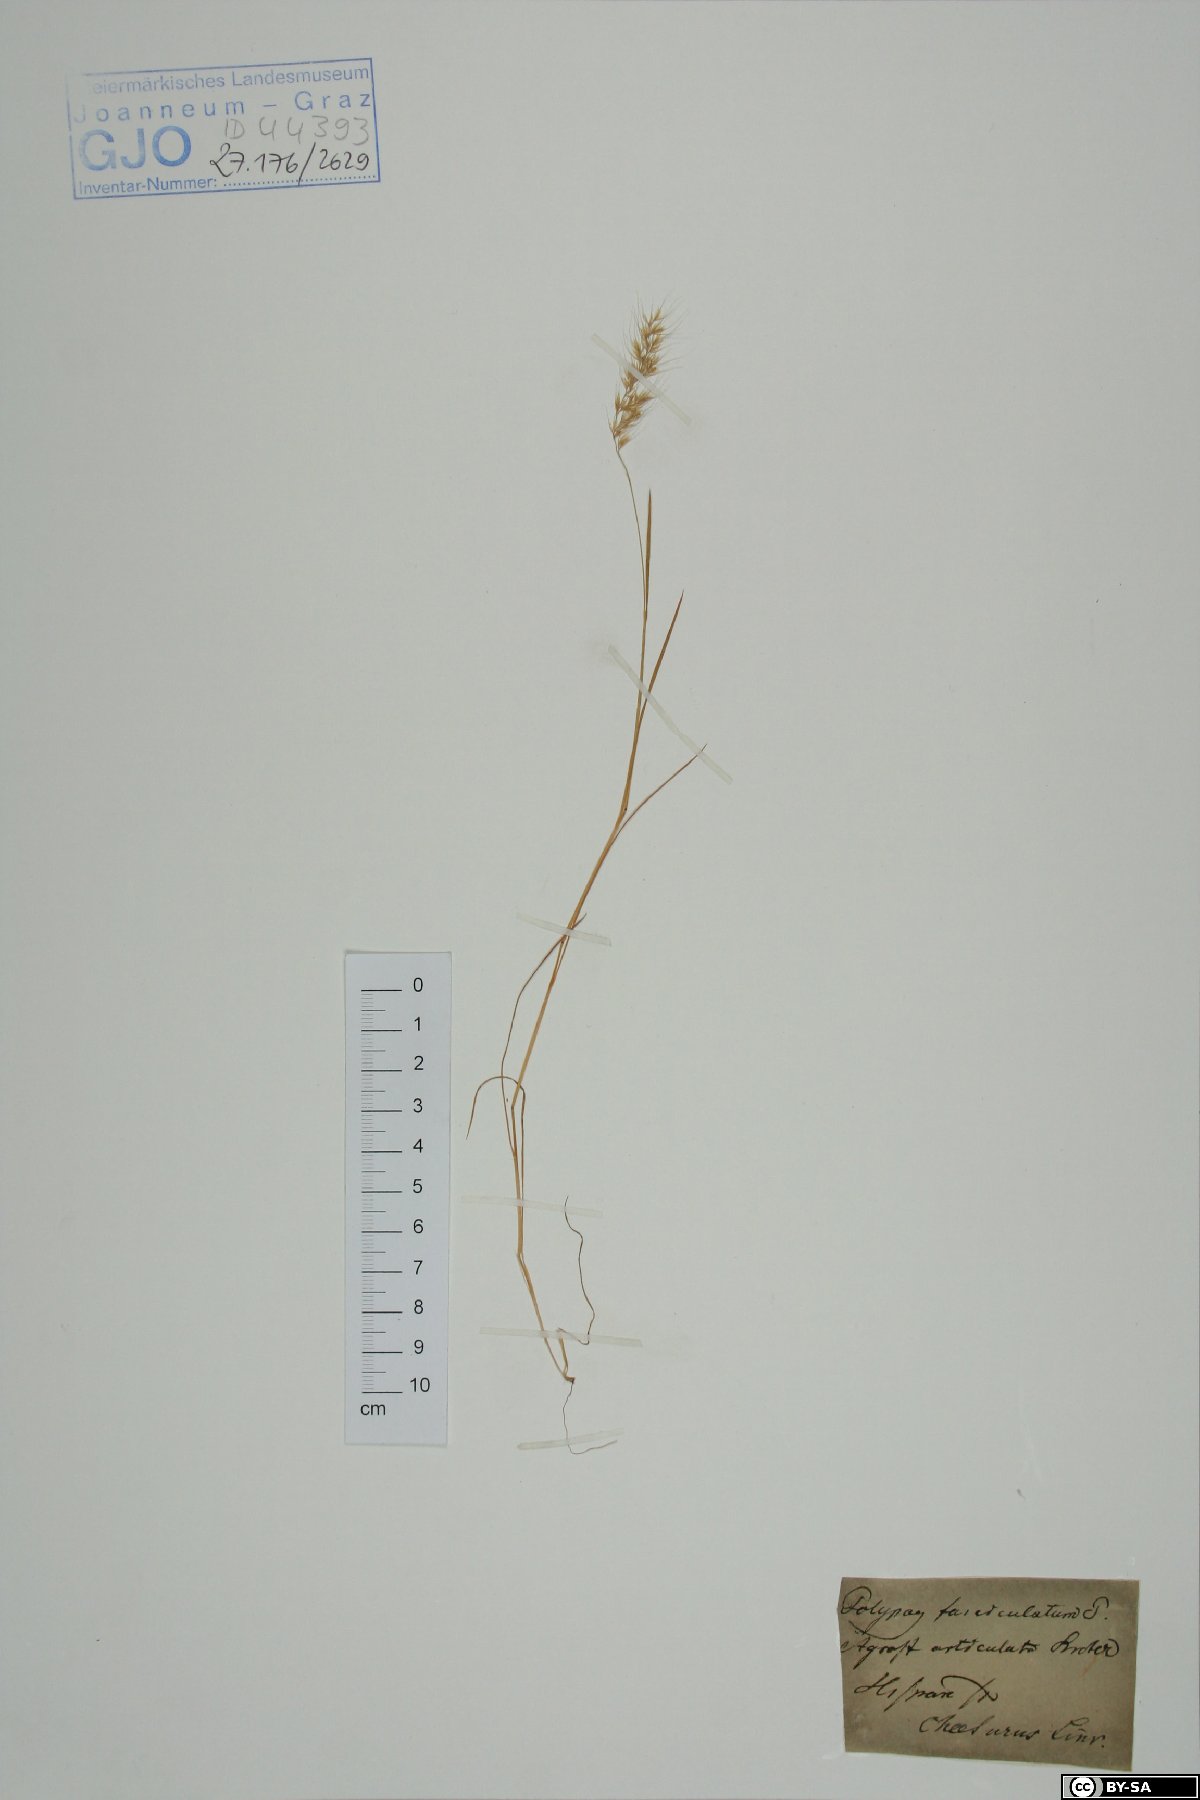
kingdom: Plantae
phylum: Tracheophyta
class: Liliopsida
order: Poales
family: Poaceae
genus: Agrostis
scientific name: Agrostis subspicata
